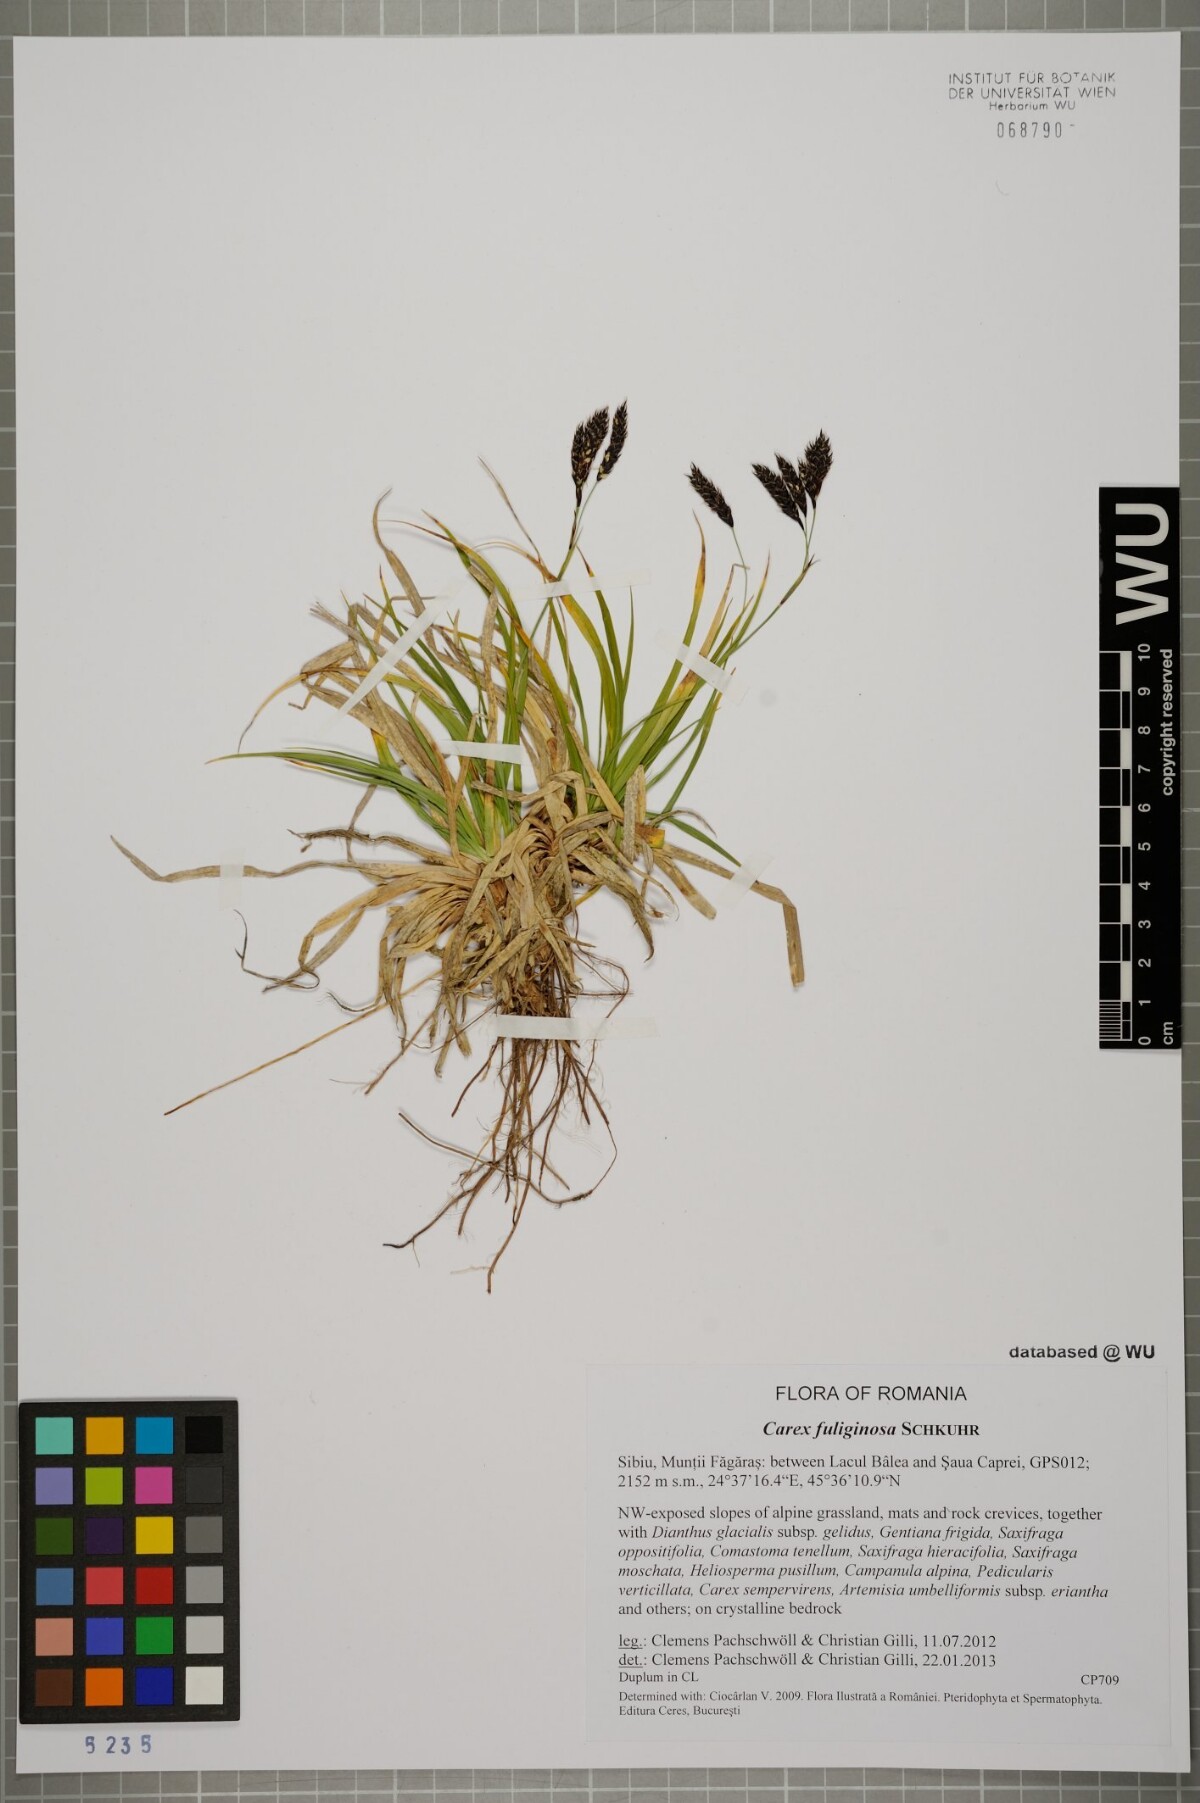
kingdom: Plantae
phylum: Tracheophyta
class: Liliopsida
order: Poales
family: Cyperaceae
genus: Carex
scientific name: Carex fuliginosa
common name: Few-flowered sedge
